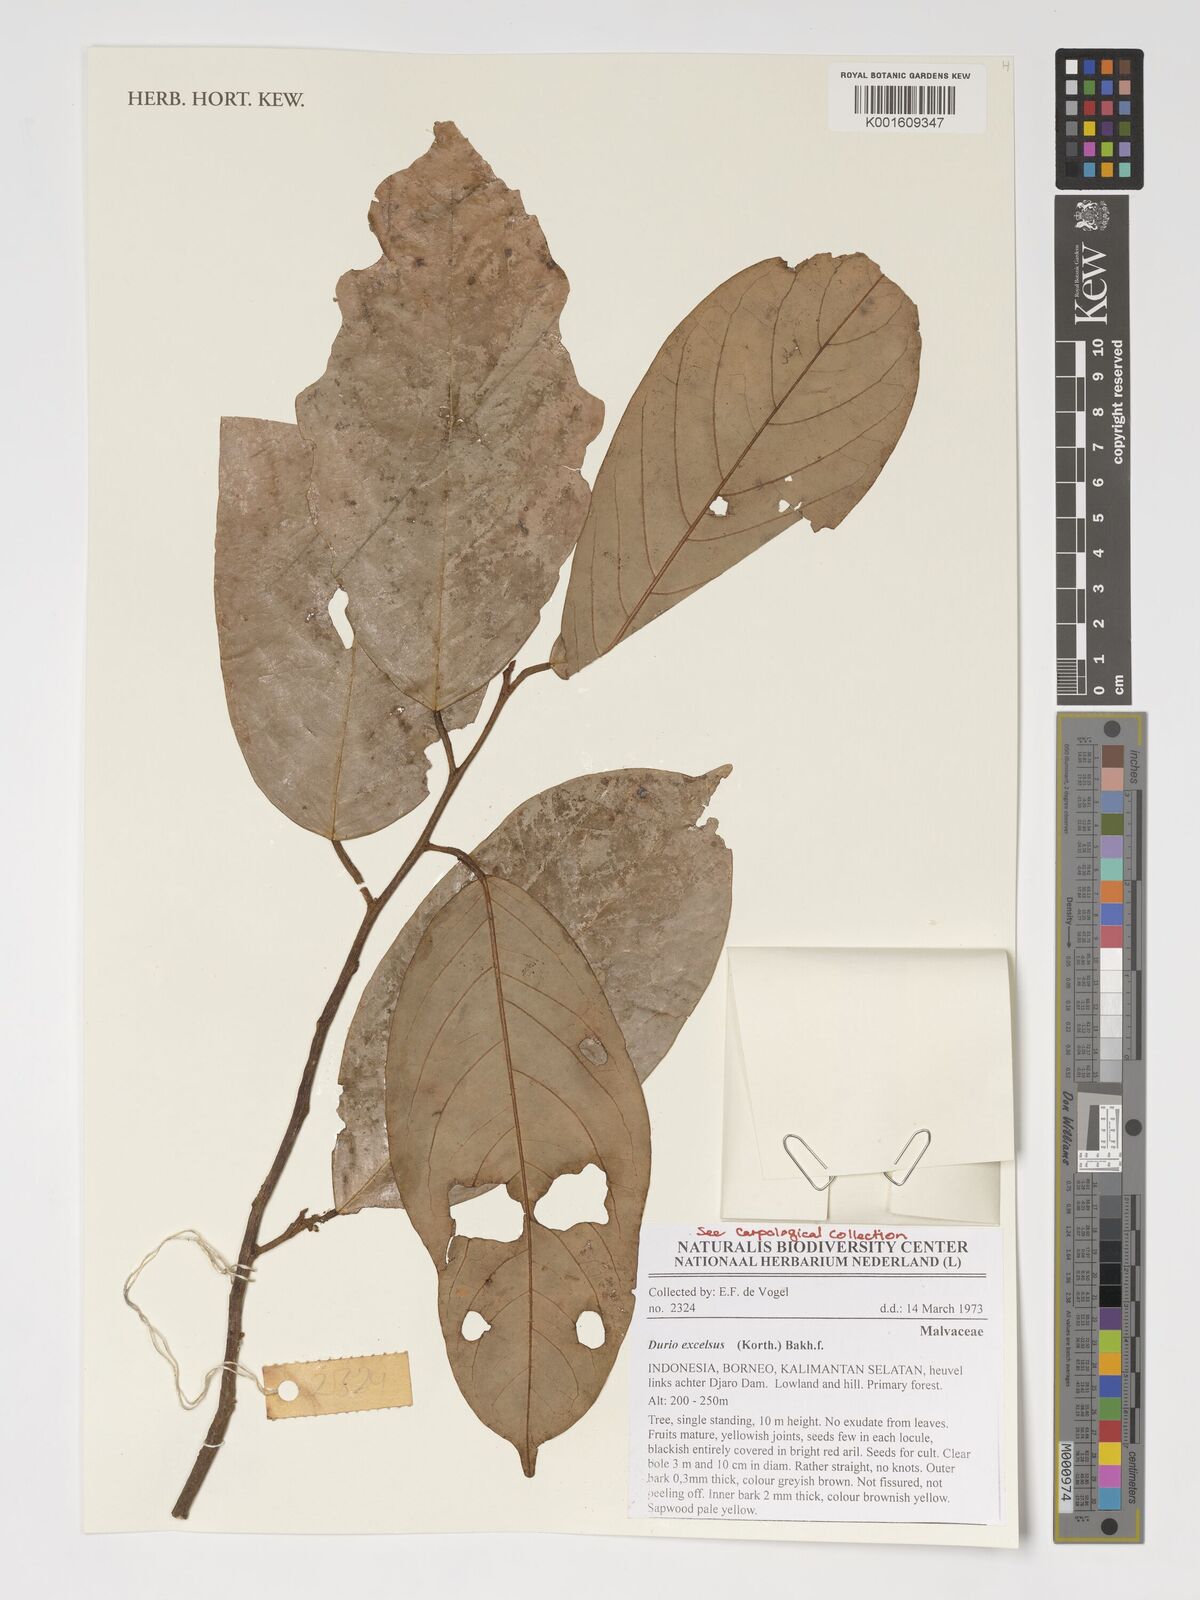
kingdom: Plantae
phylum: Tracheophyta
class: Magnoliopsida
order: Malvales
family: Malvaceae
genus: Boschia
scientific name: Boschia excelsa
